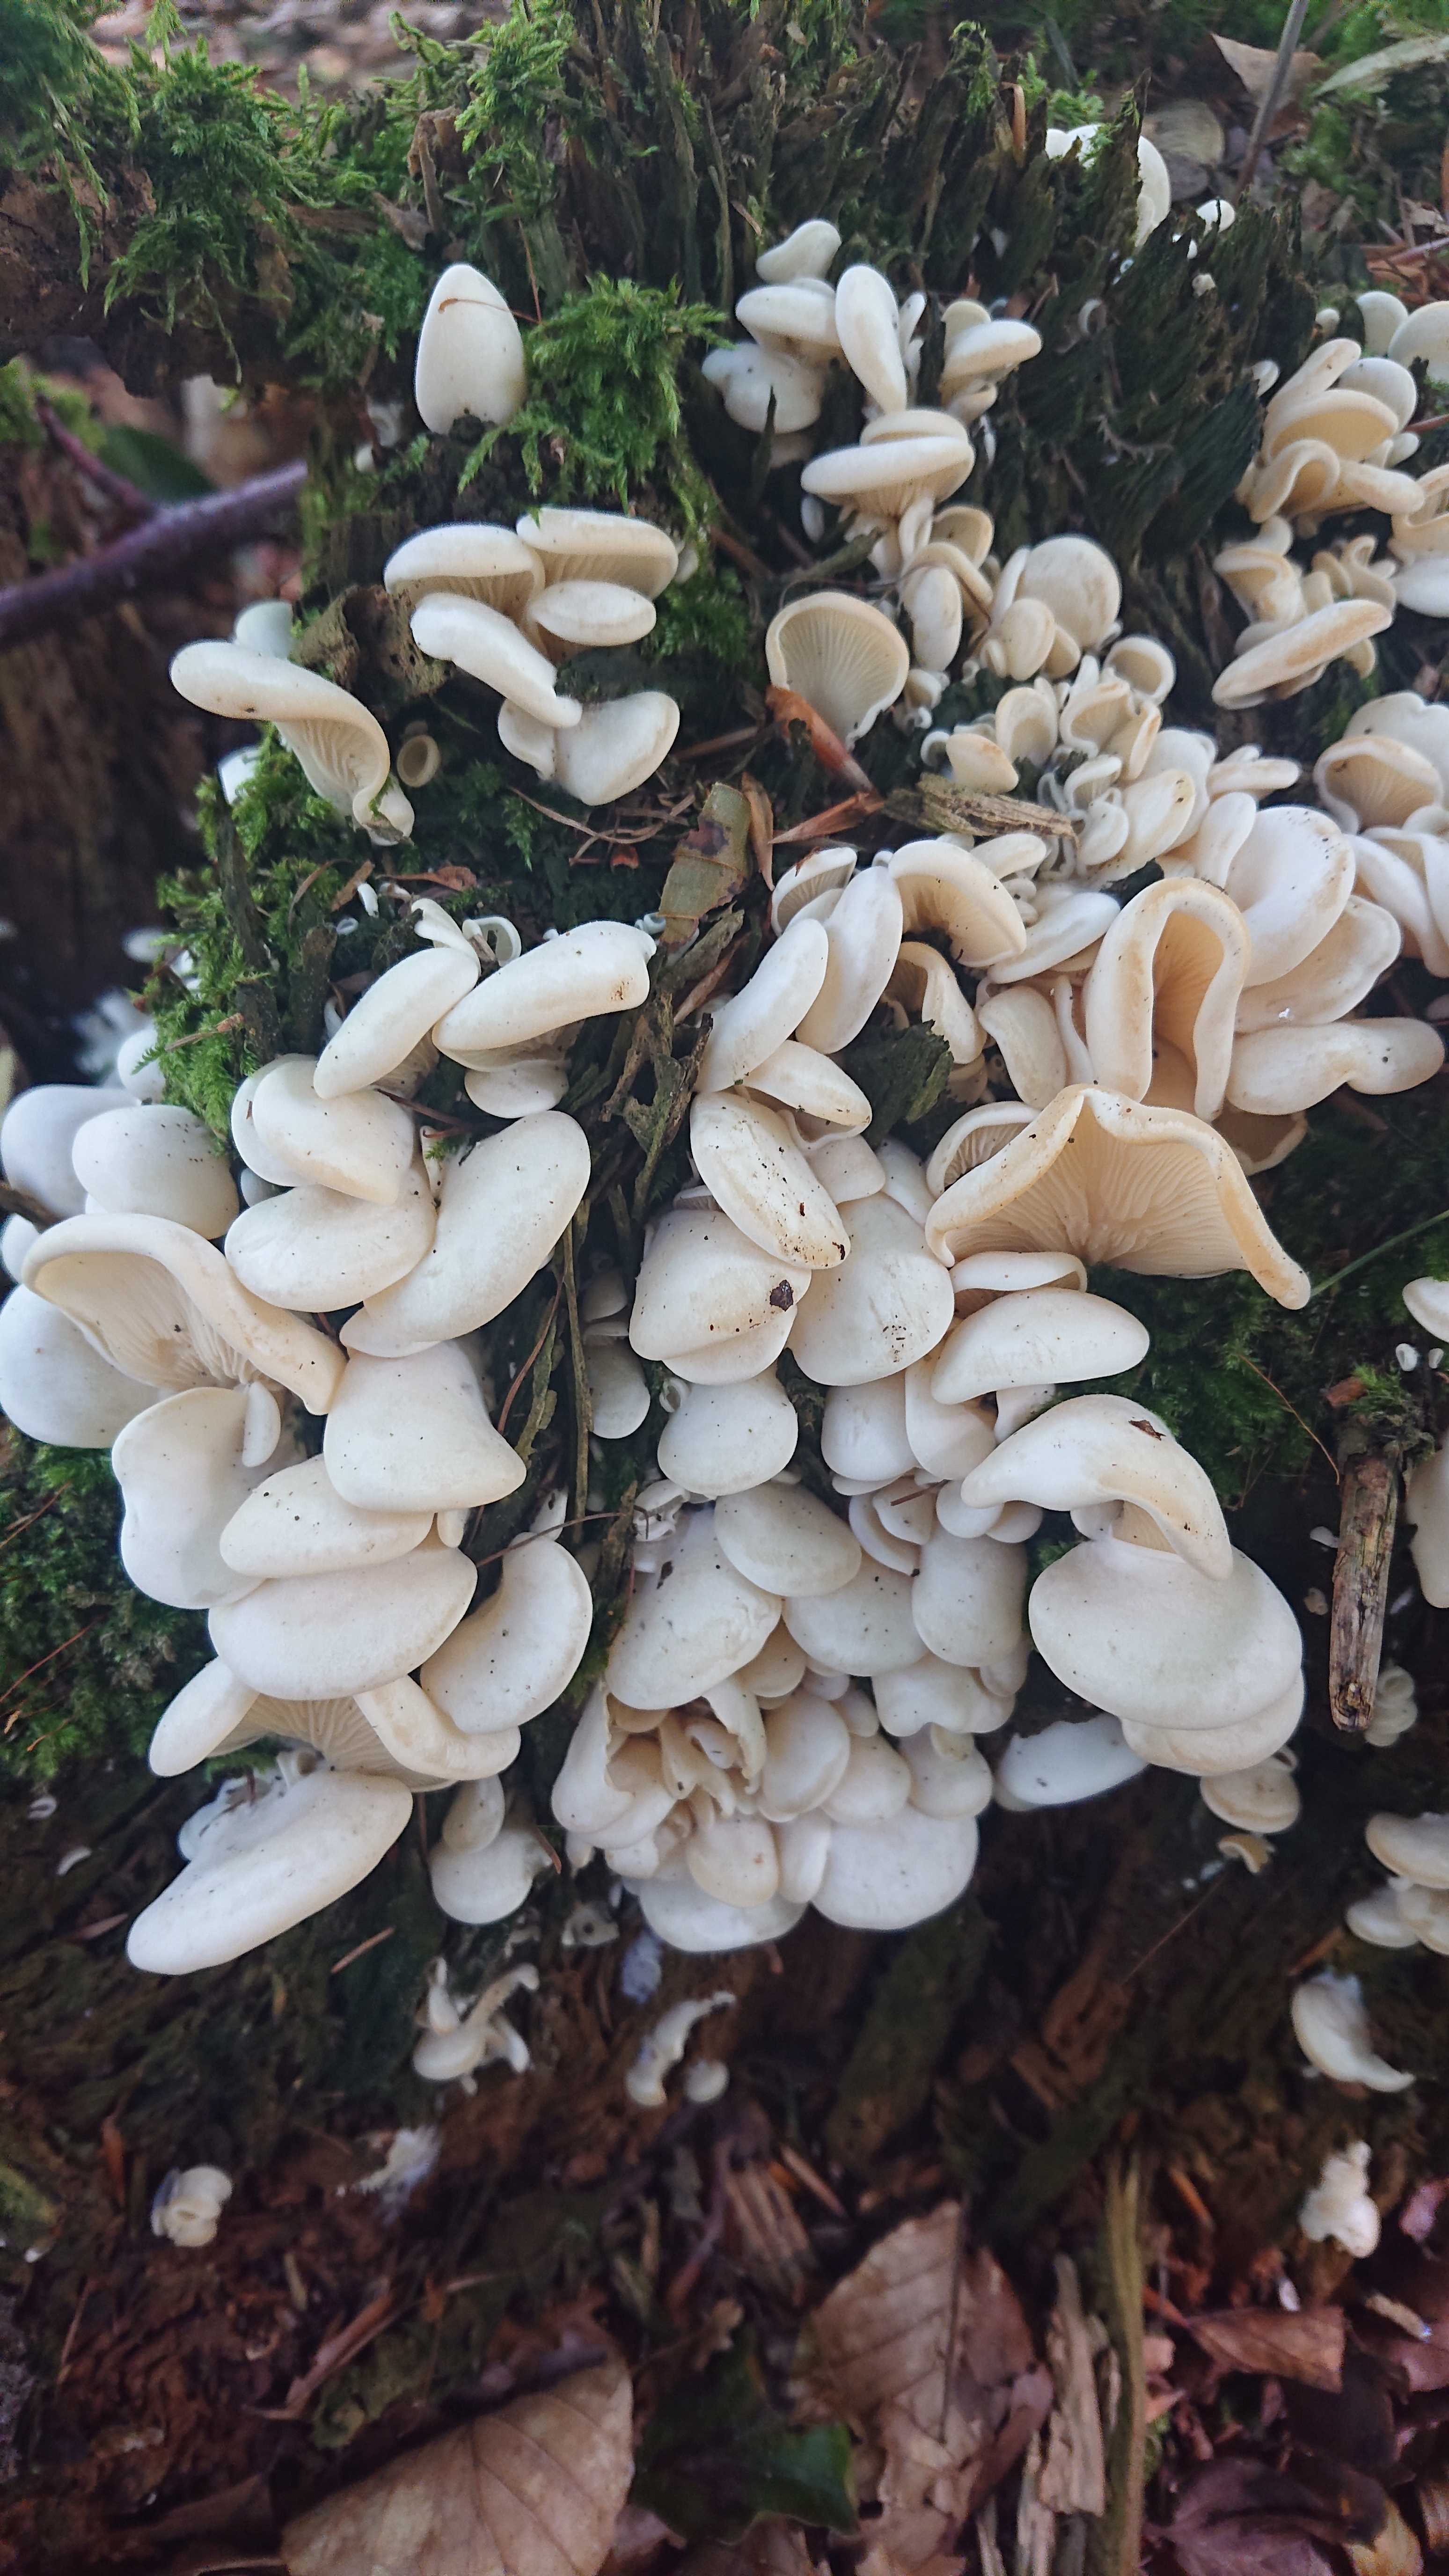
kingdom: Fungi
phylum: Basidiomycota
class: Agaricomycetes
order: Agaricales
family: Marasmiaceae
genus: Pleurocybella
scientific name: Pleurocybella porrigens
